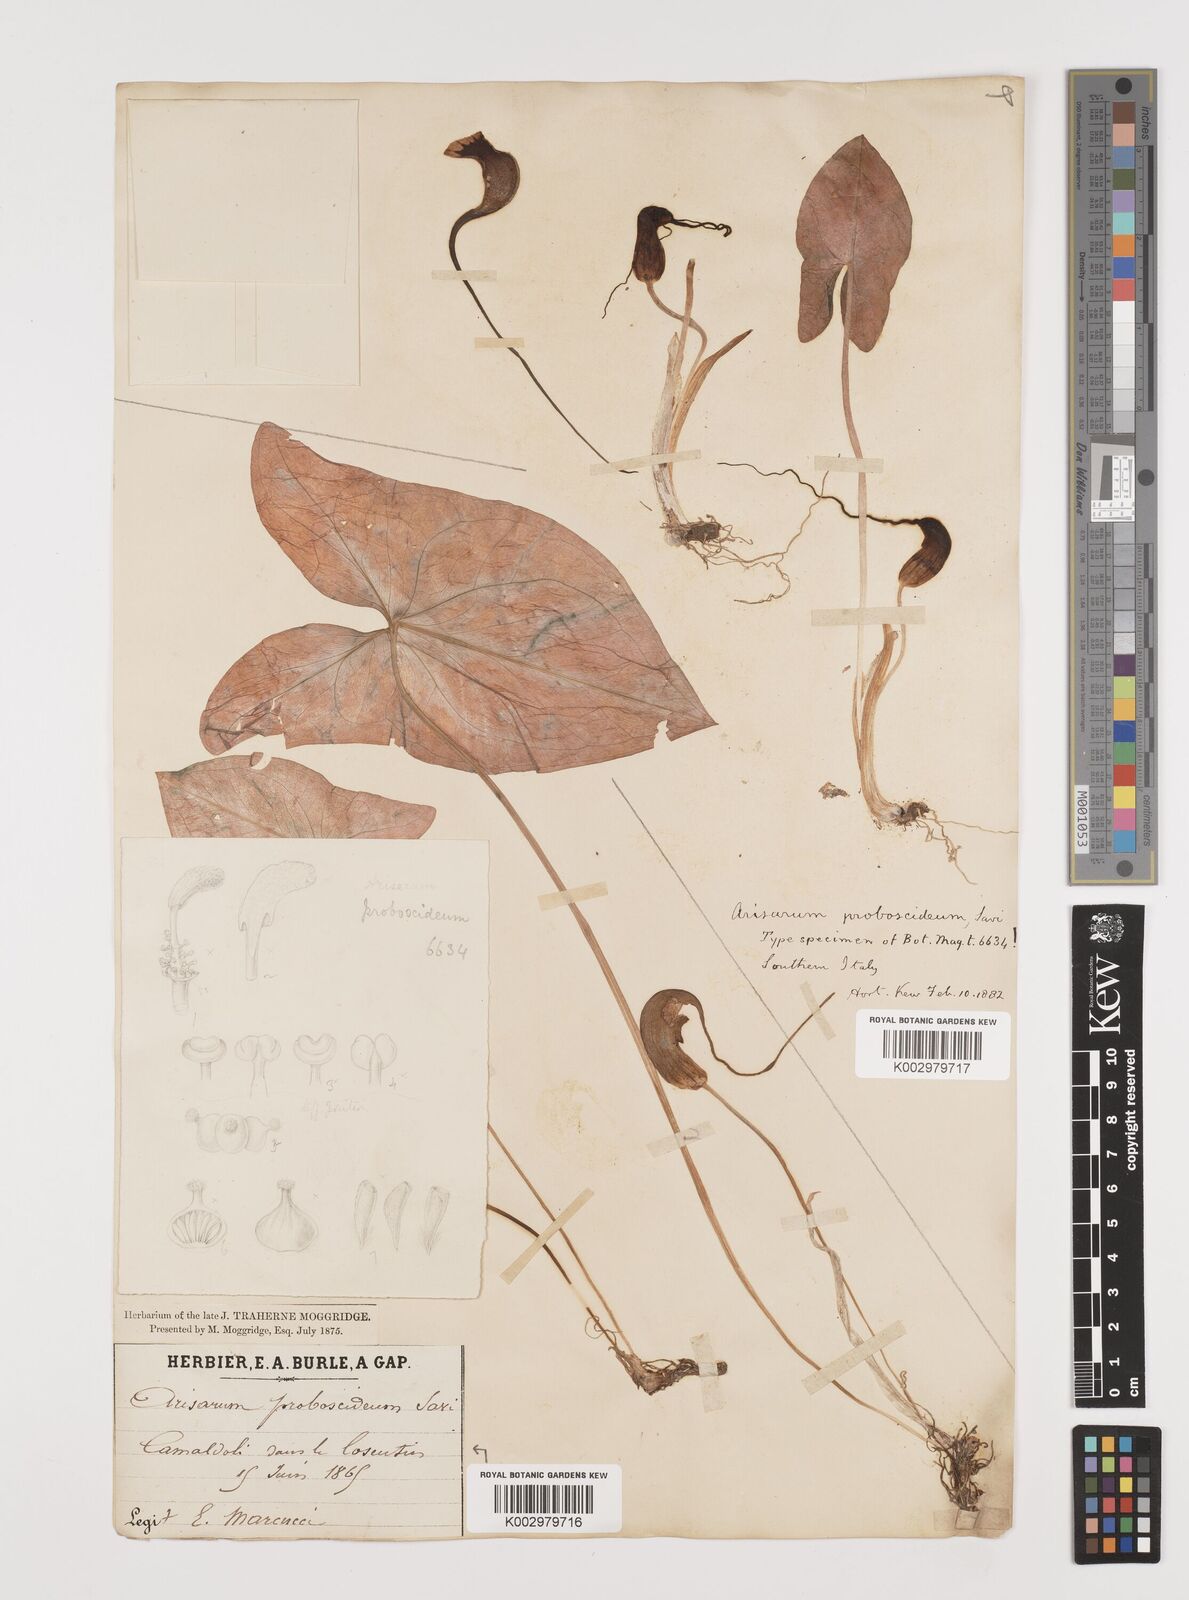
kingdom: Plantae
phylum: Tracheophyta
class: Liliopsida
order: Alismatales
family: Araceae
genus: Arisarum
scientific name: Arisarum proboscideum
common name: Mousetailplant
